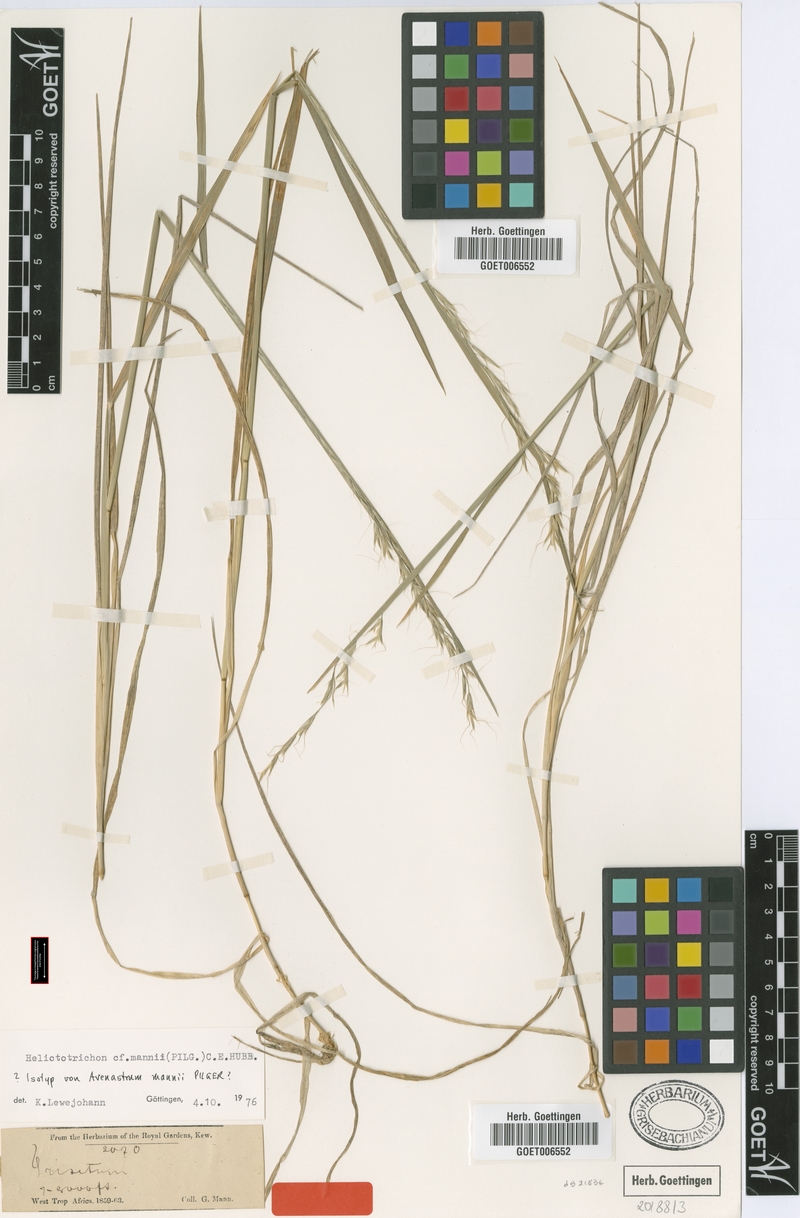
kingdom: Plantae
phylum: Tracheophyta
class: Liliopsida
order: Poales
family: Poaceae
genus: Trisetopsis
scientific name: Trisetopsis mannii
